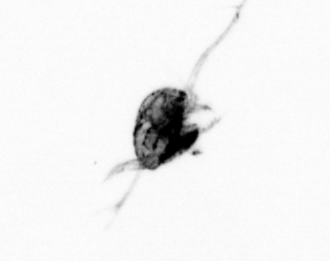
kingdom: Animalia
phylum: Arthropoda
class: Copepoda
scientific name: Copepoda
